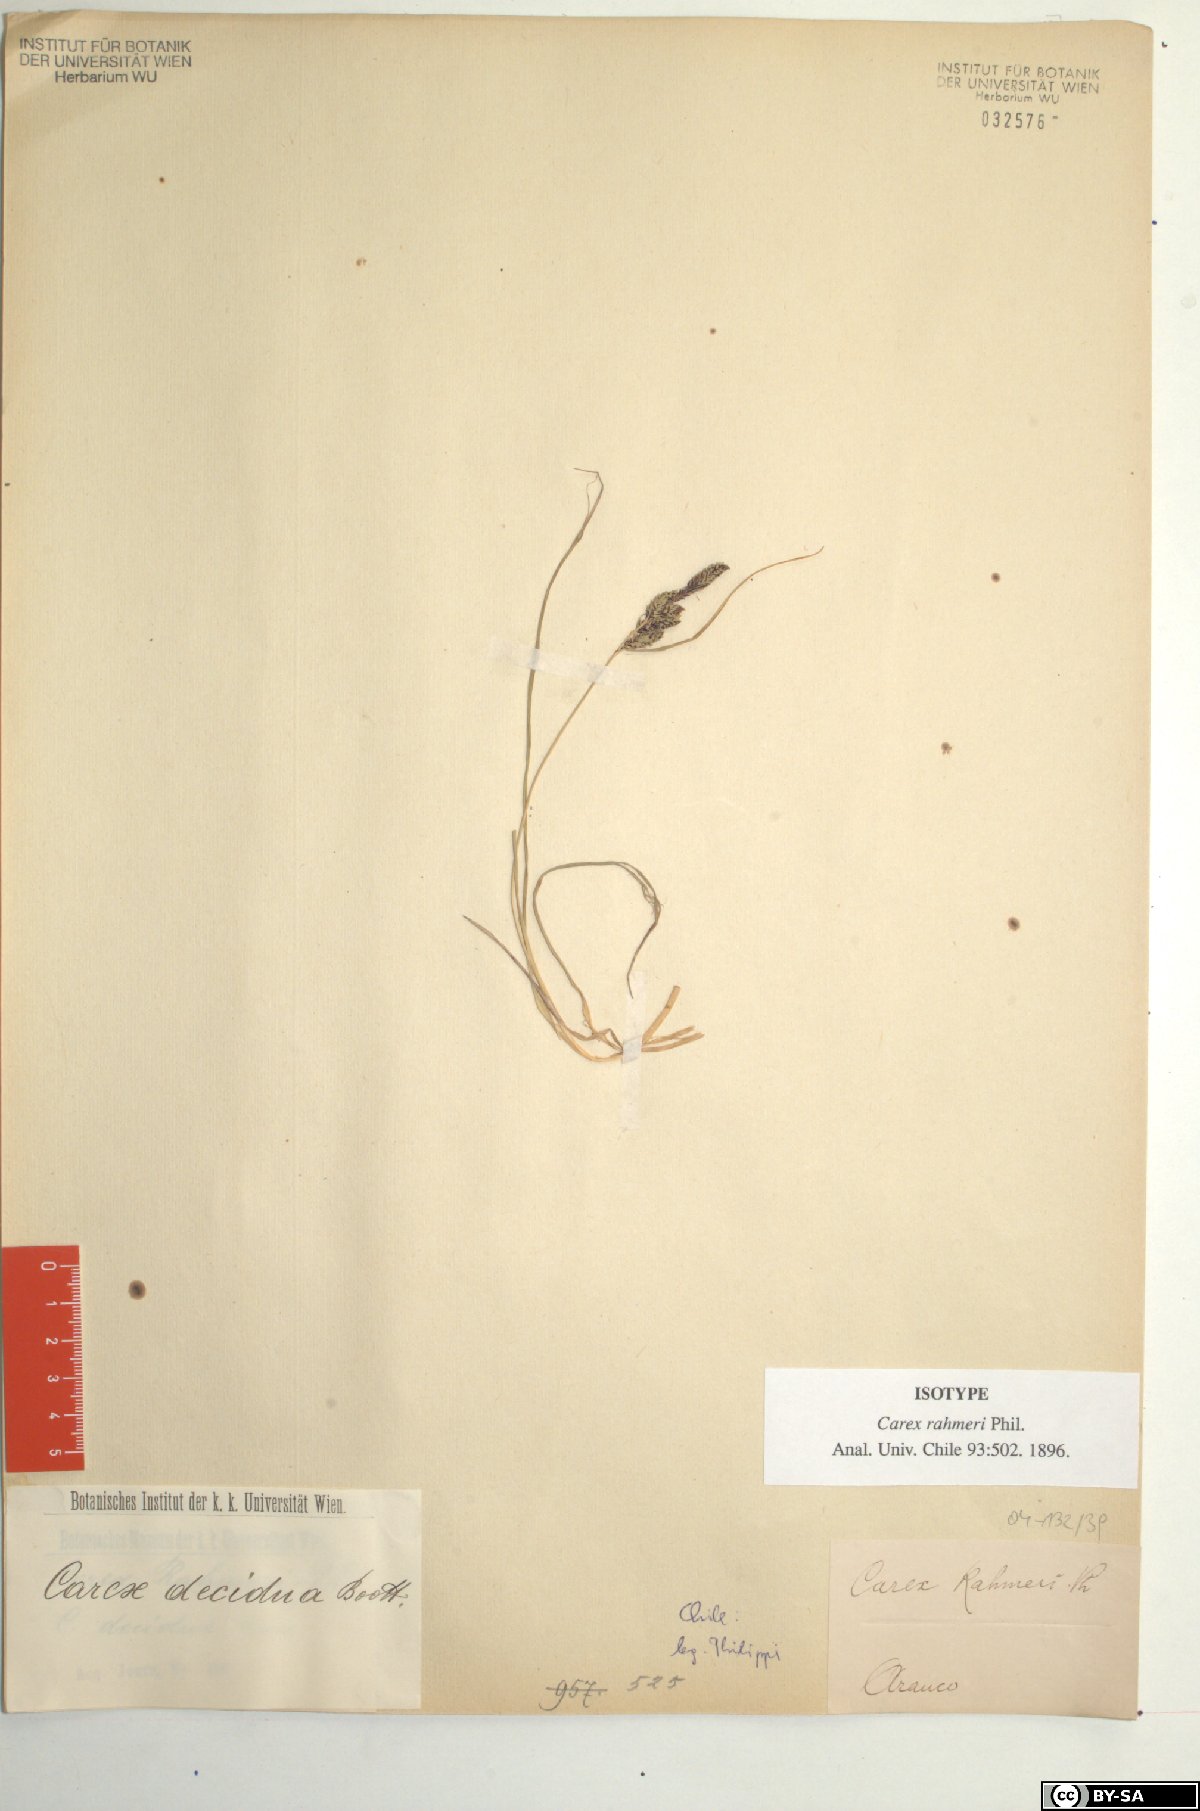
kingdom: Plantae
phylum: Tracheophyta
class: Liliopsida
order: Poales
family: Cyperaceae
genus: Carex
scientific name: Carex decidua
